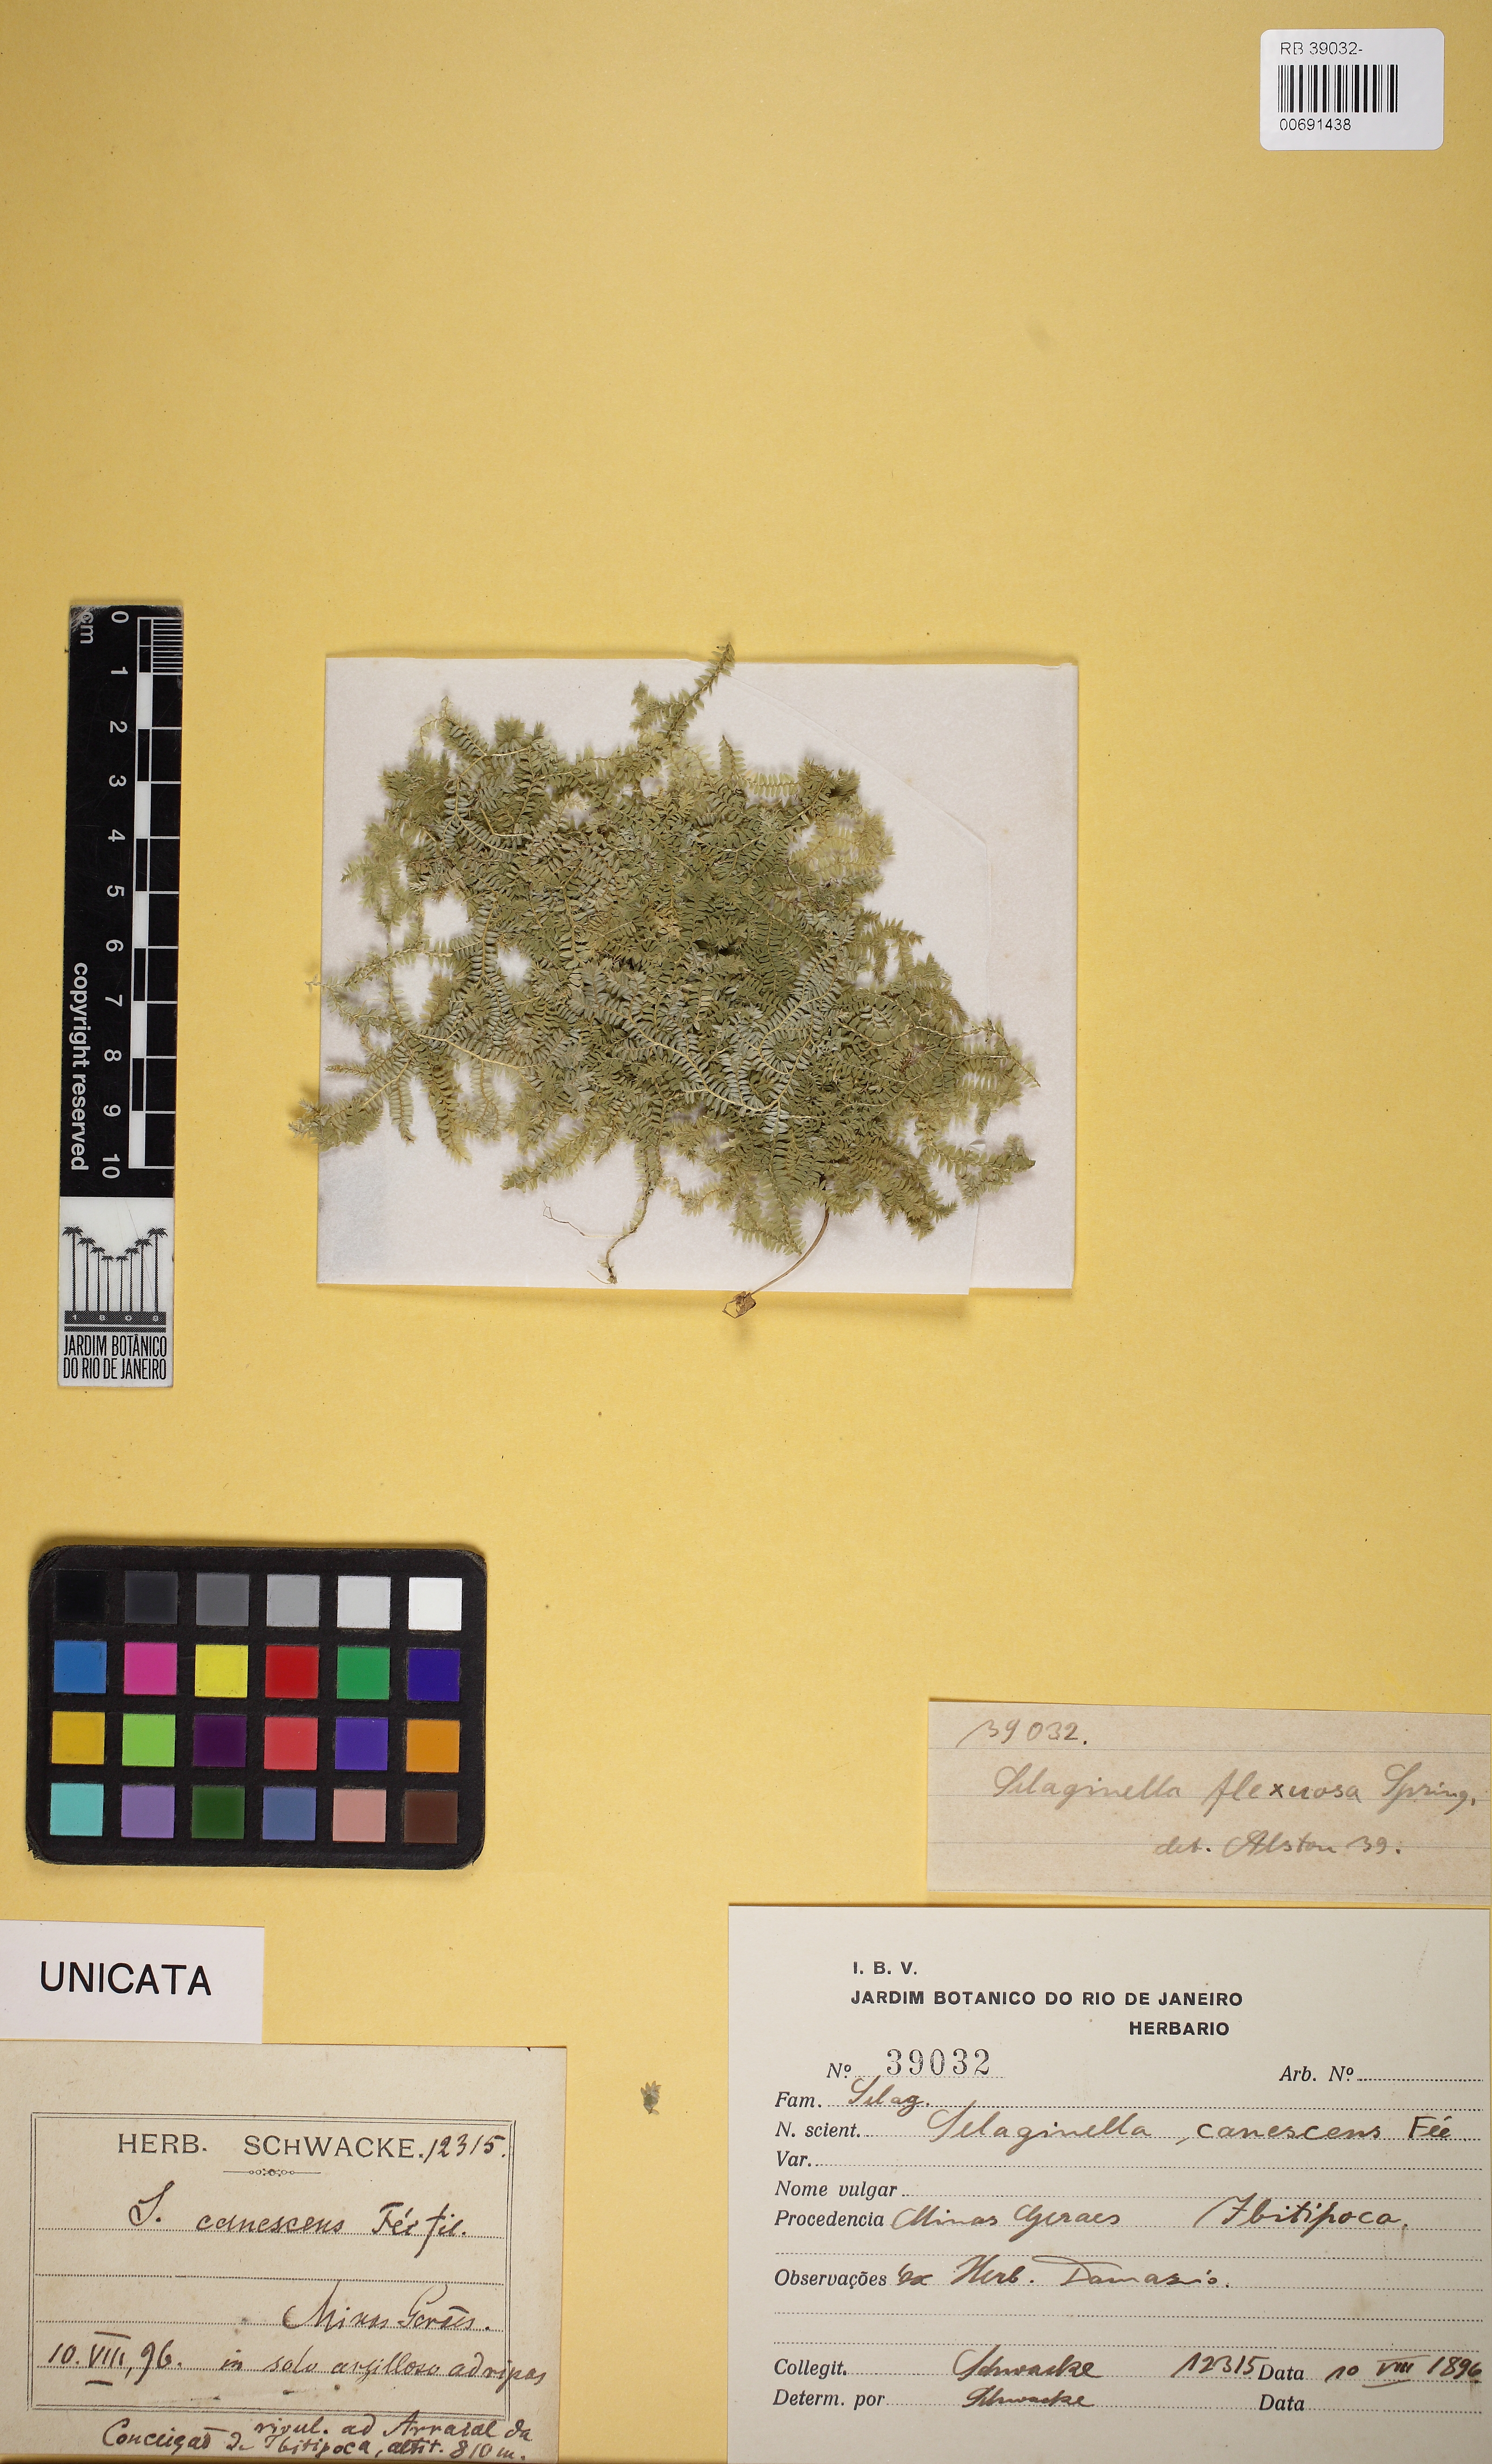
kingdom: Plantae
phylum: Tracheophyta
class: Lycopodiopsida
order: Selaginellales
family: Selaginellaceae
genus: Selaginella
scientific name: Selaginella flexuosa
